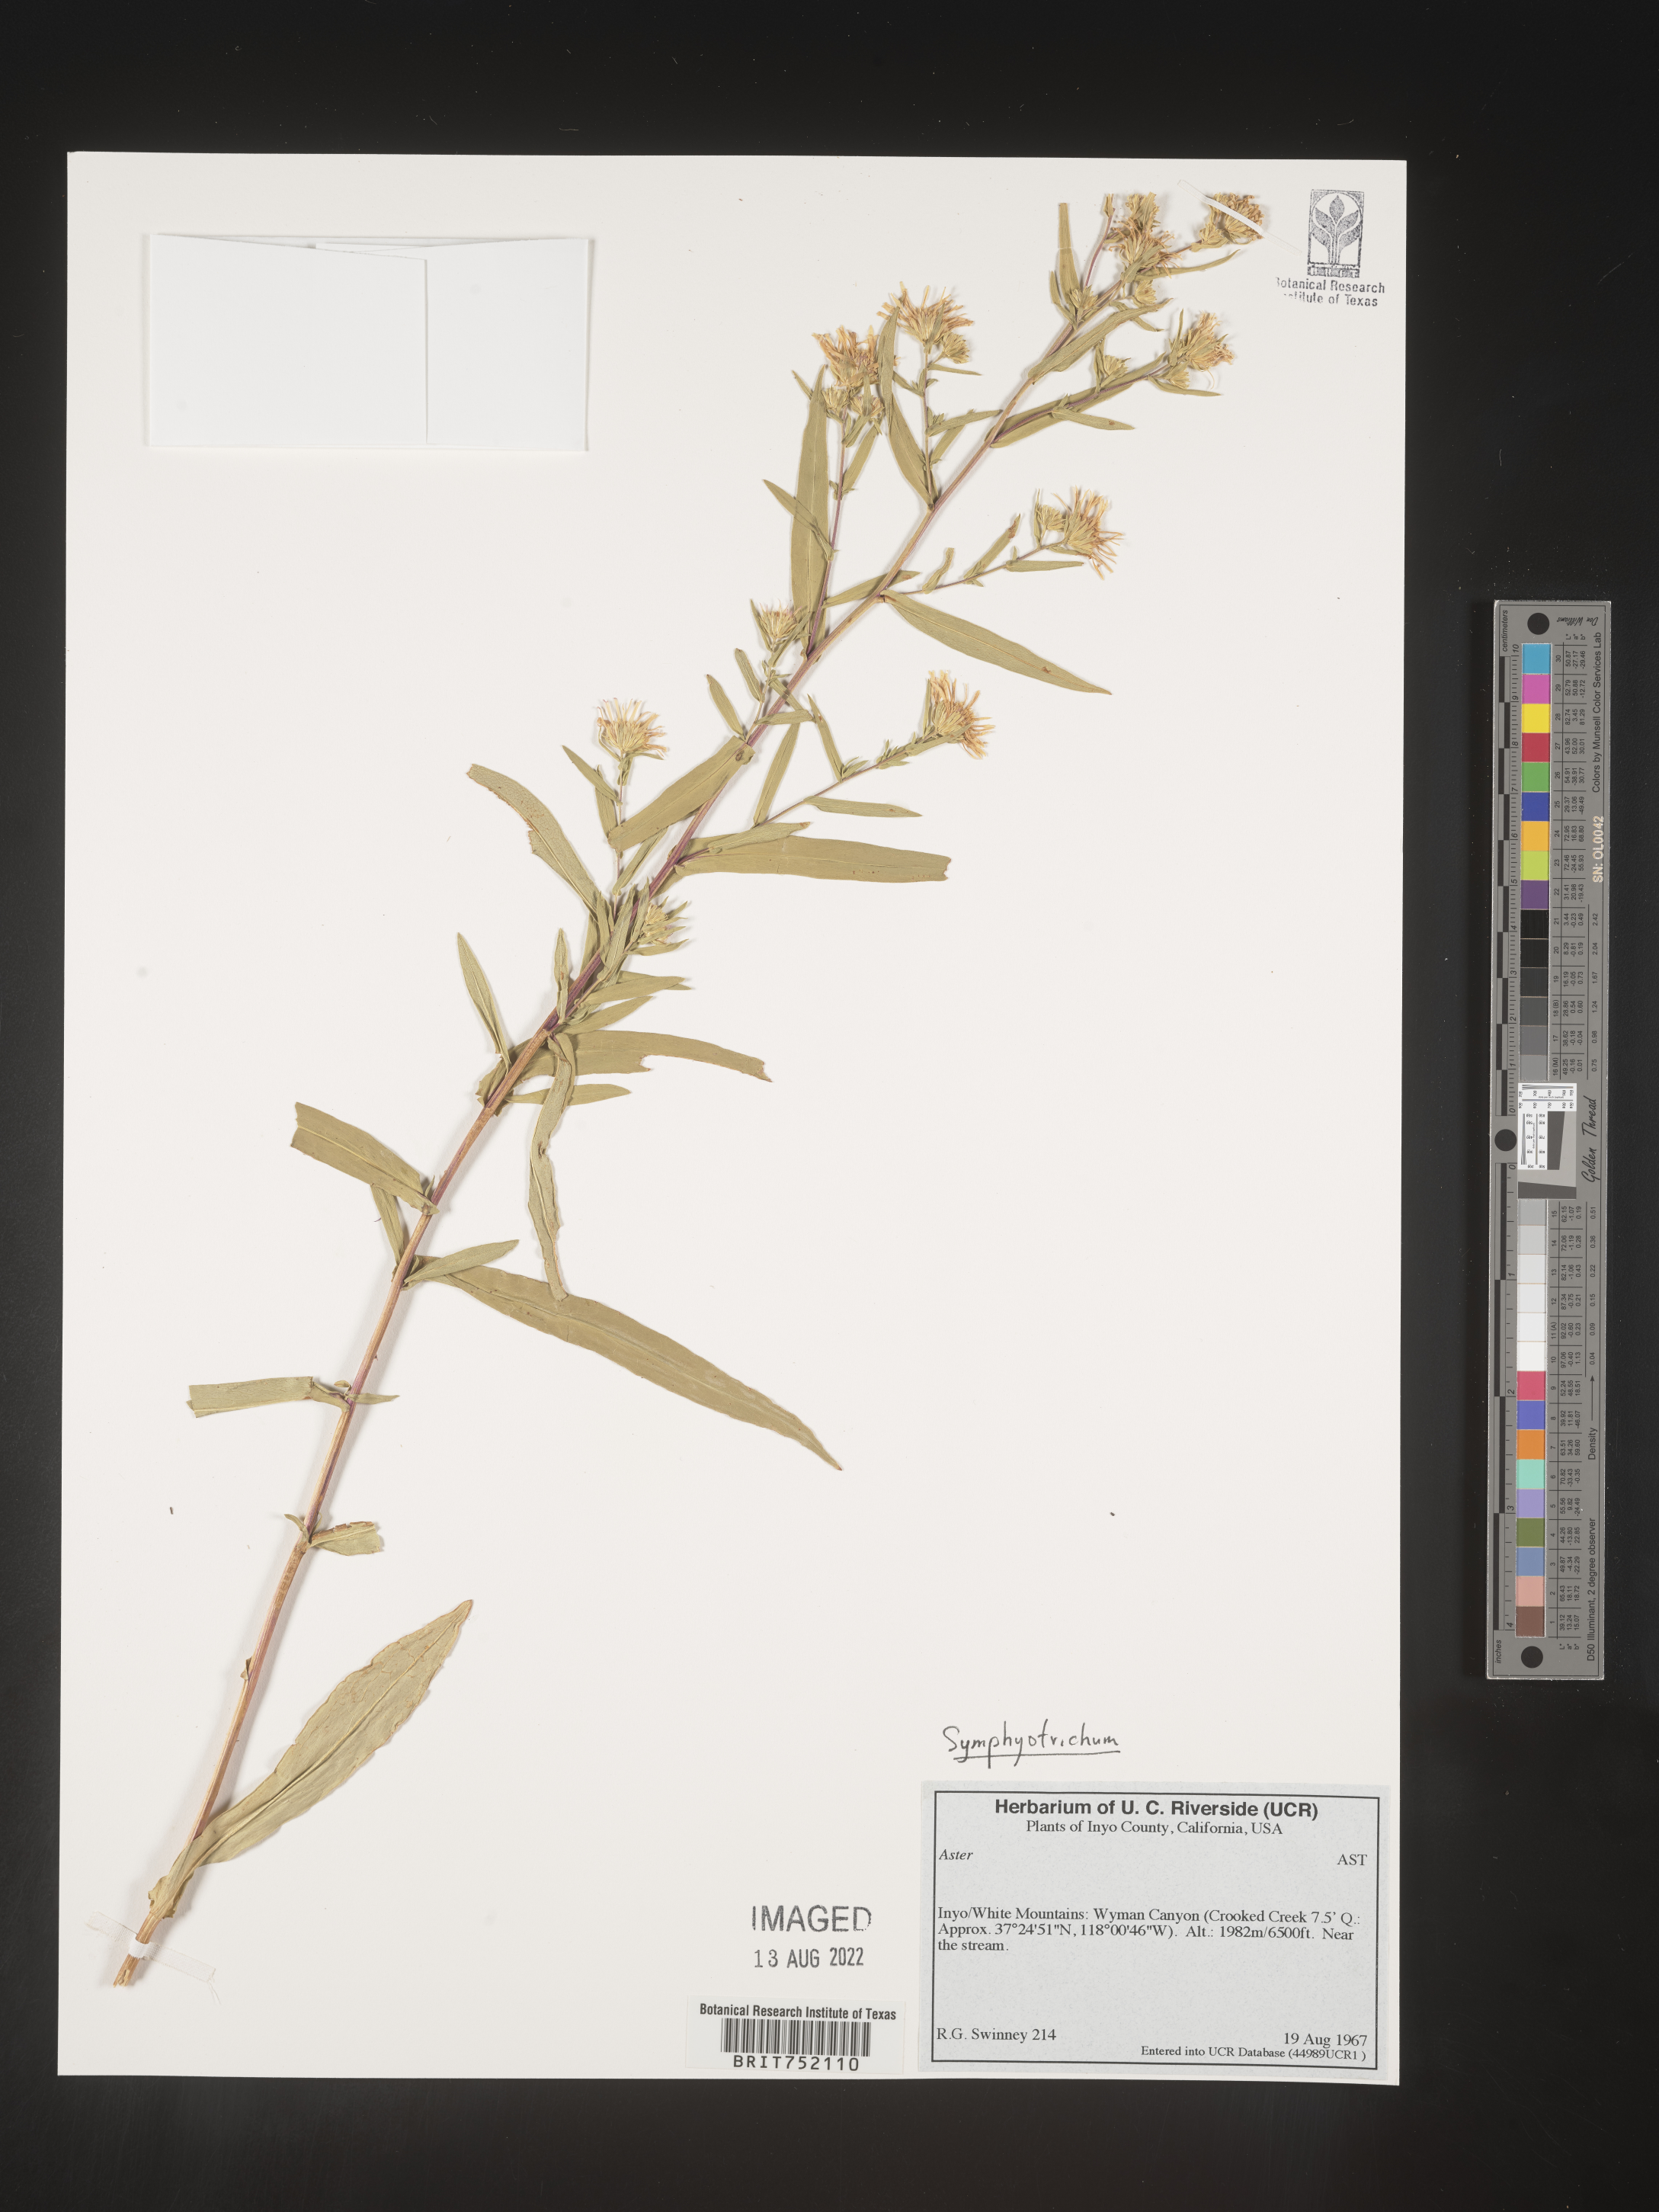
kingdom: Plantae
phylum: Tracheophyta
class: Magnoliopsida
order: Asterales
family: Asteraceae
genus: Symphyotrichum
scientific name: Symphyotrichum bracteolatum
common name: Eaton's aster
